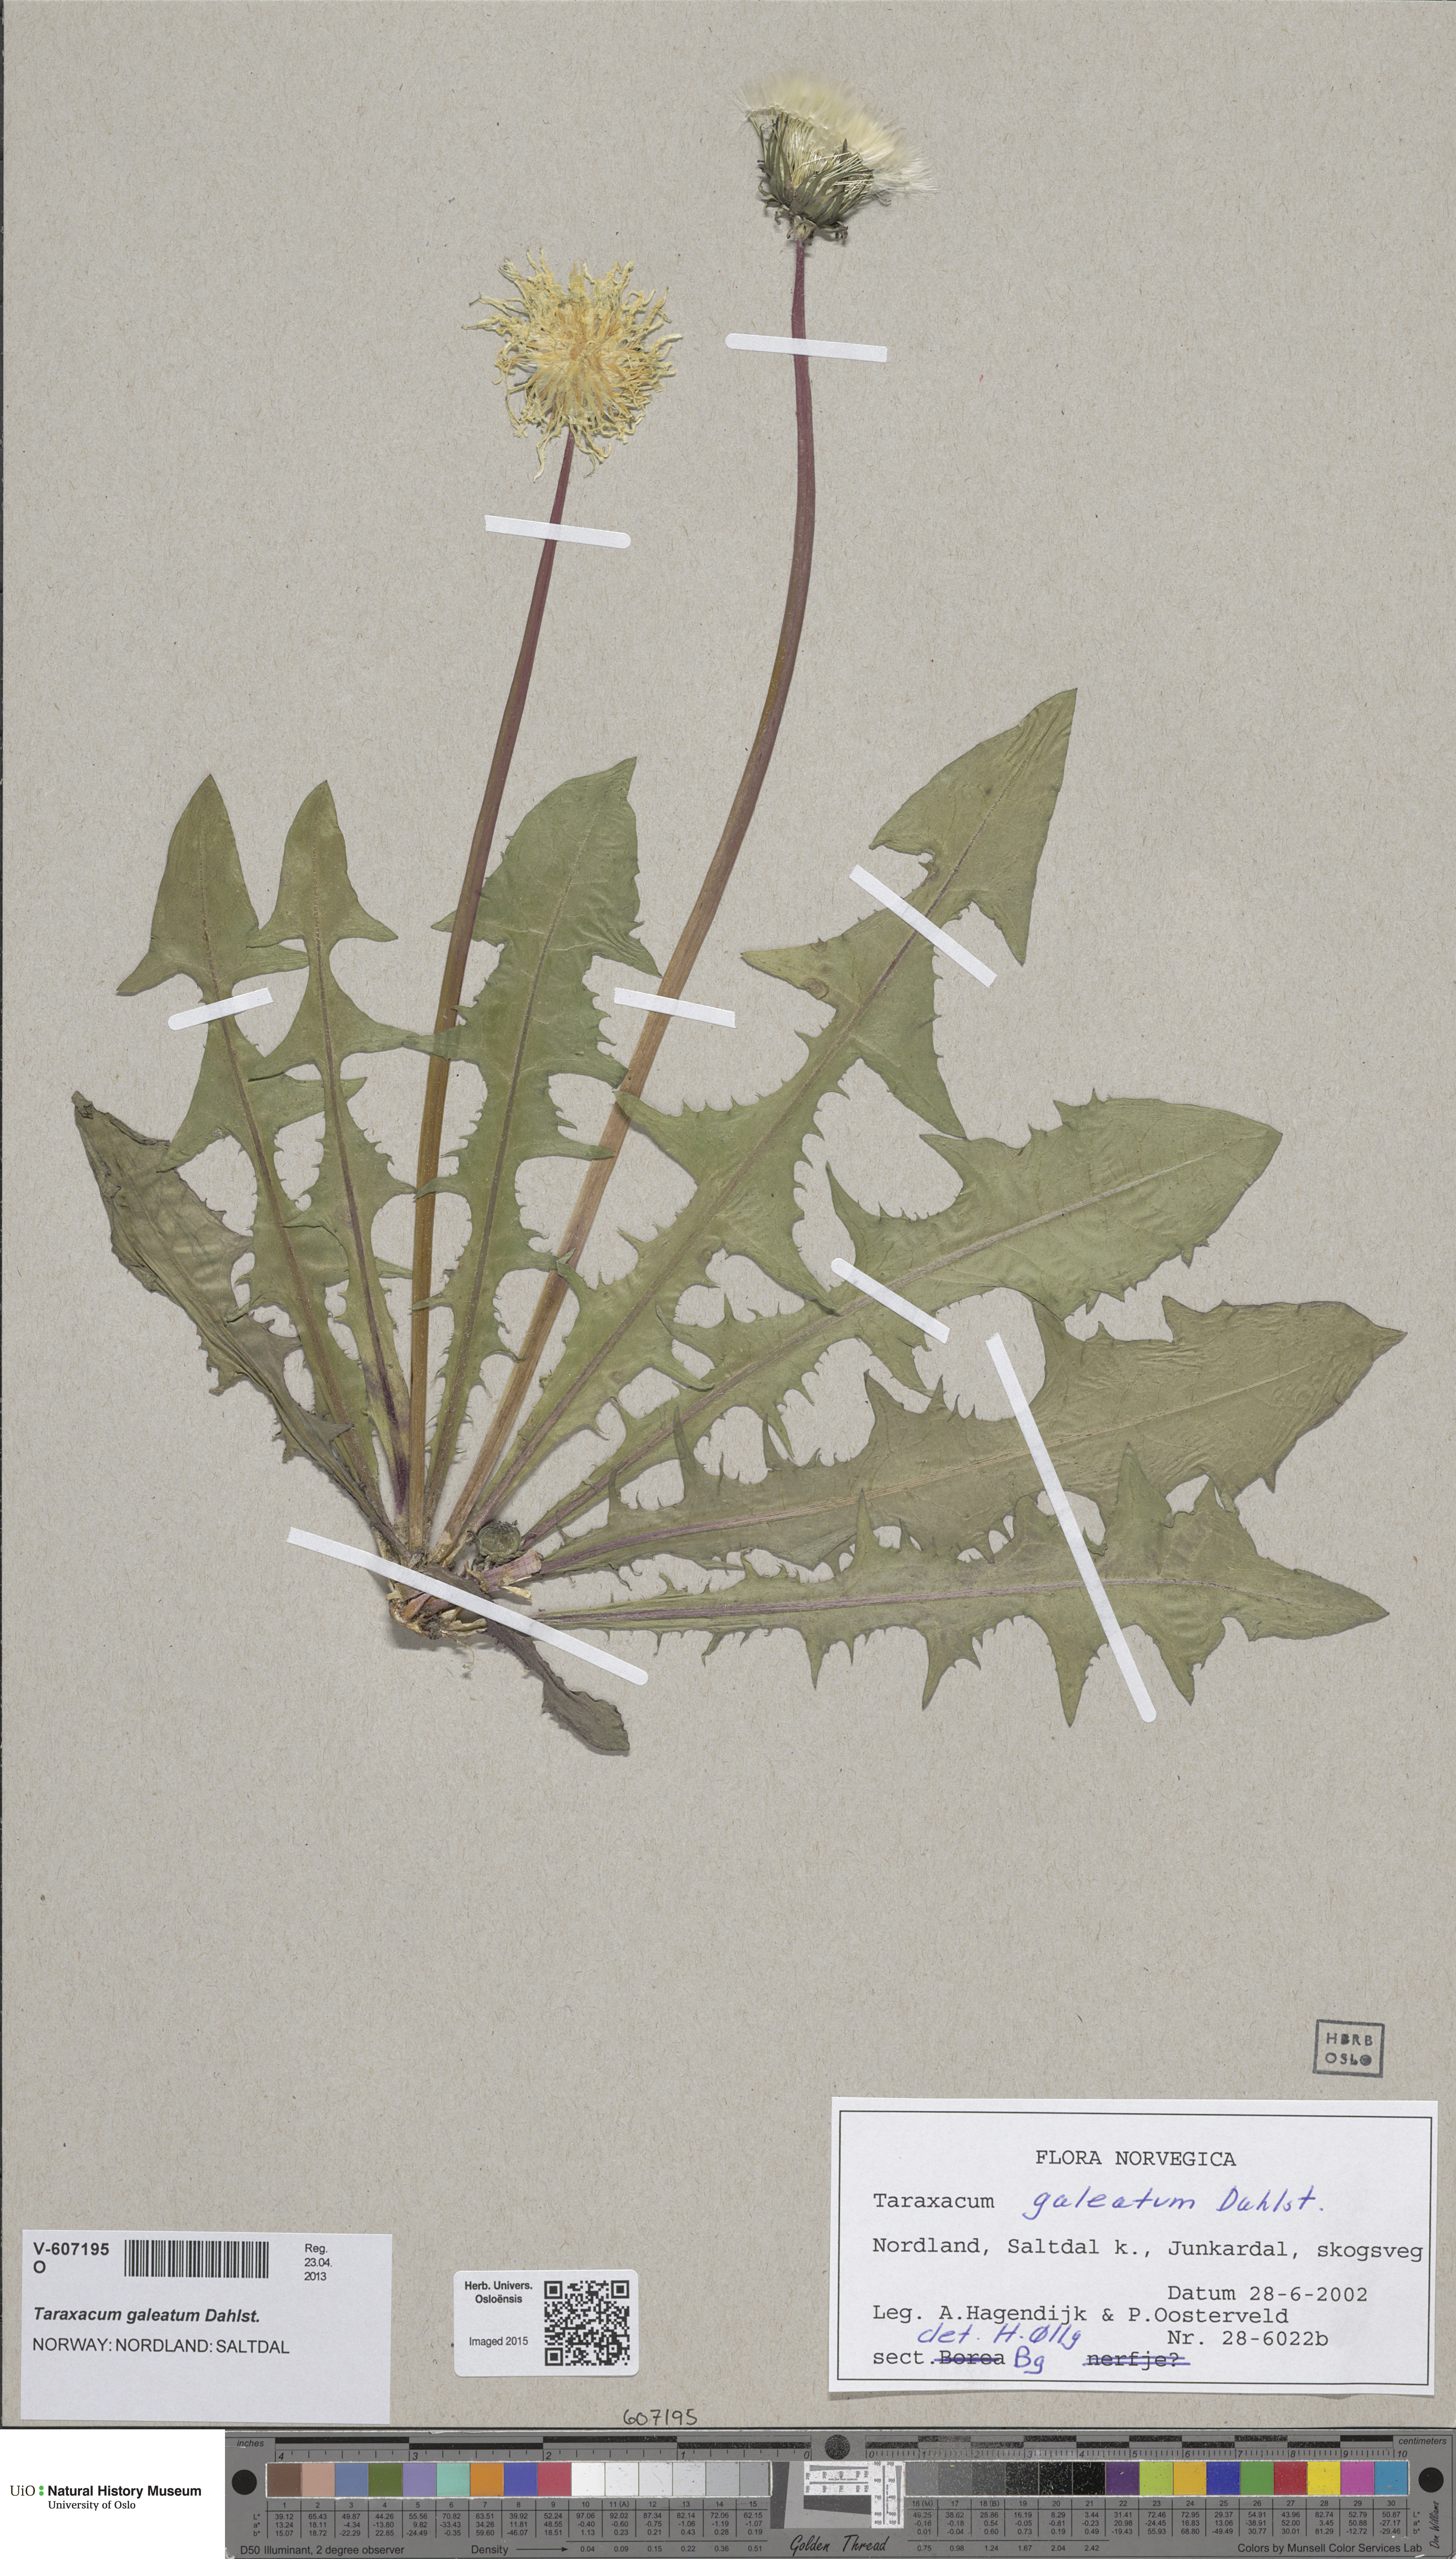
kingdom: Plantae
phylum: Tracheophyta
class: Magnoliopsida
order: Asterales
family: Asteraceae
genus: Taraxacum
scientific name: Taraxacum galeatum
